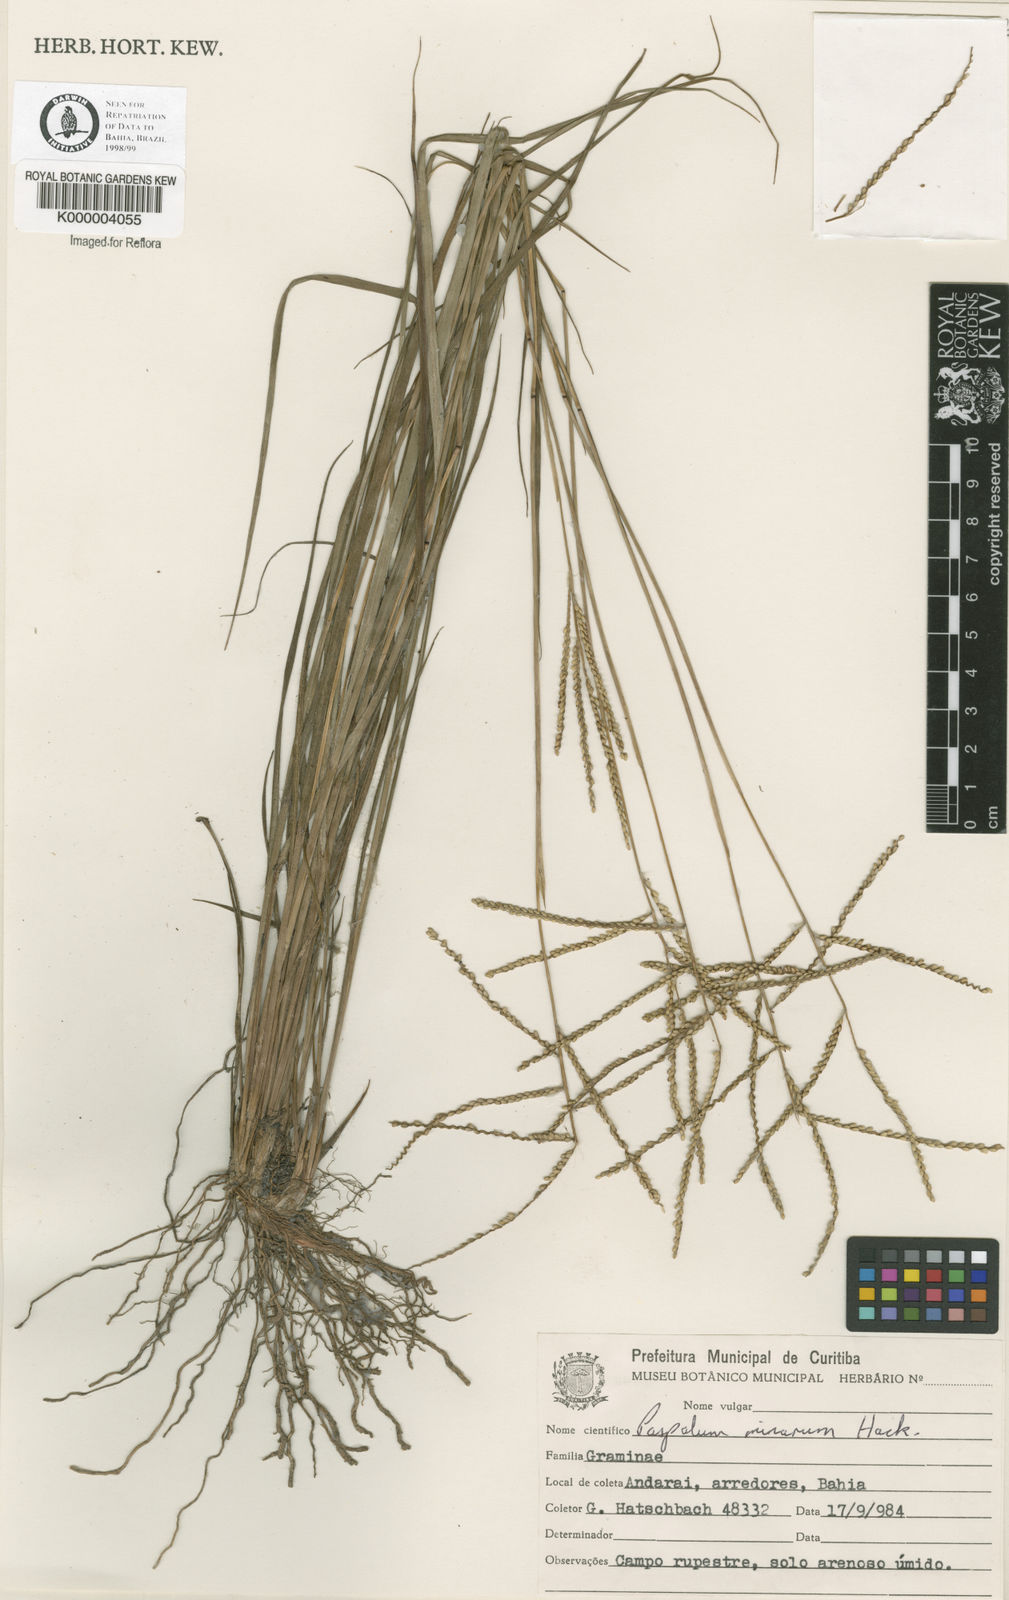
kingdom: Plantae
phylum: Tracheophyta
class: Liliopsida
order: Poales
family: Poaceae
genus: Paspalum
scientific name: Paspalum minarum
